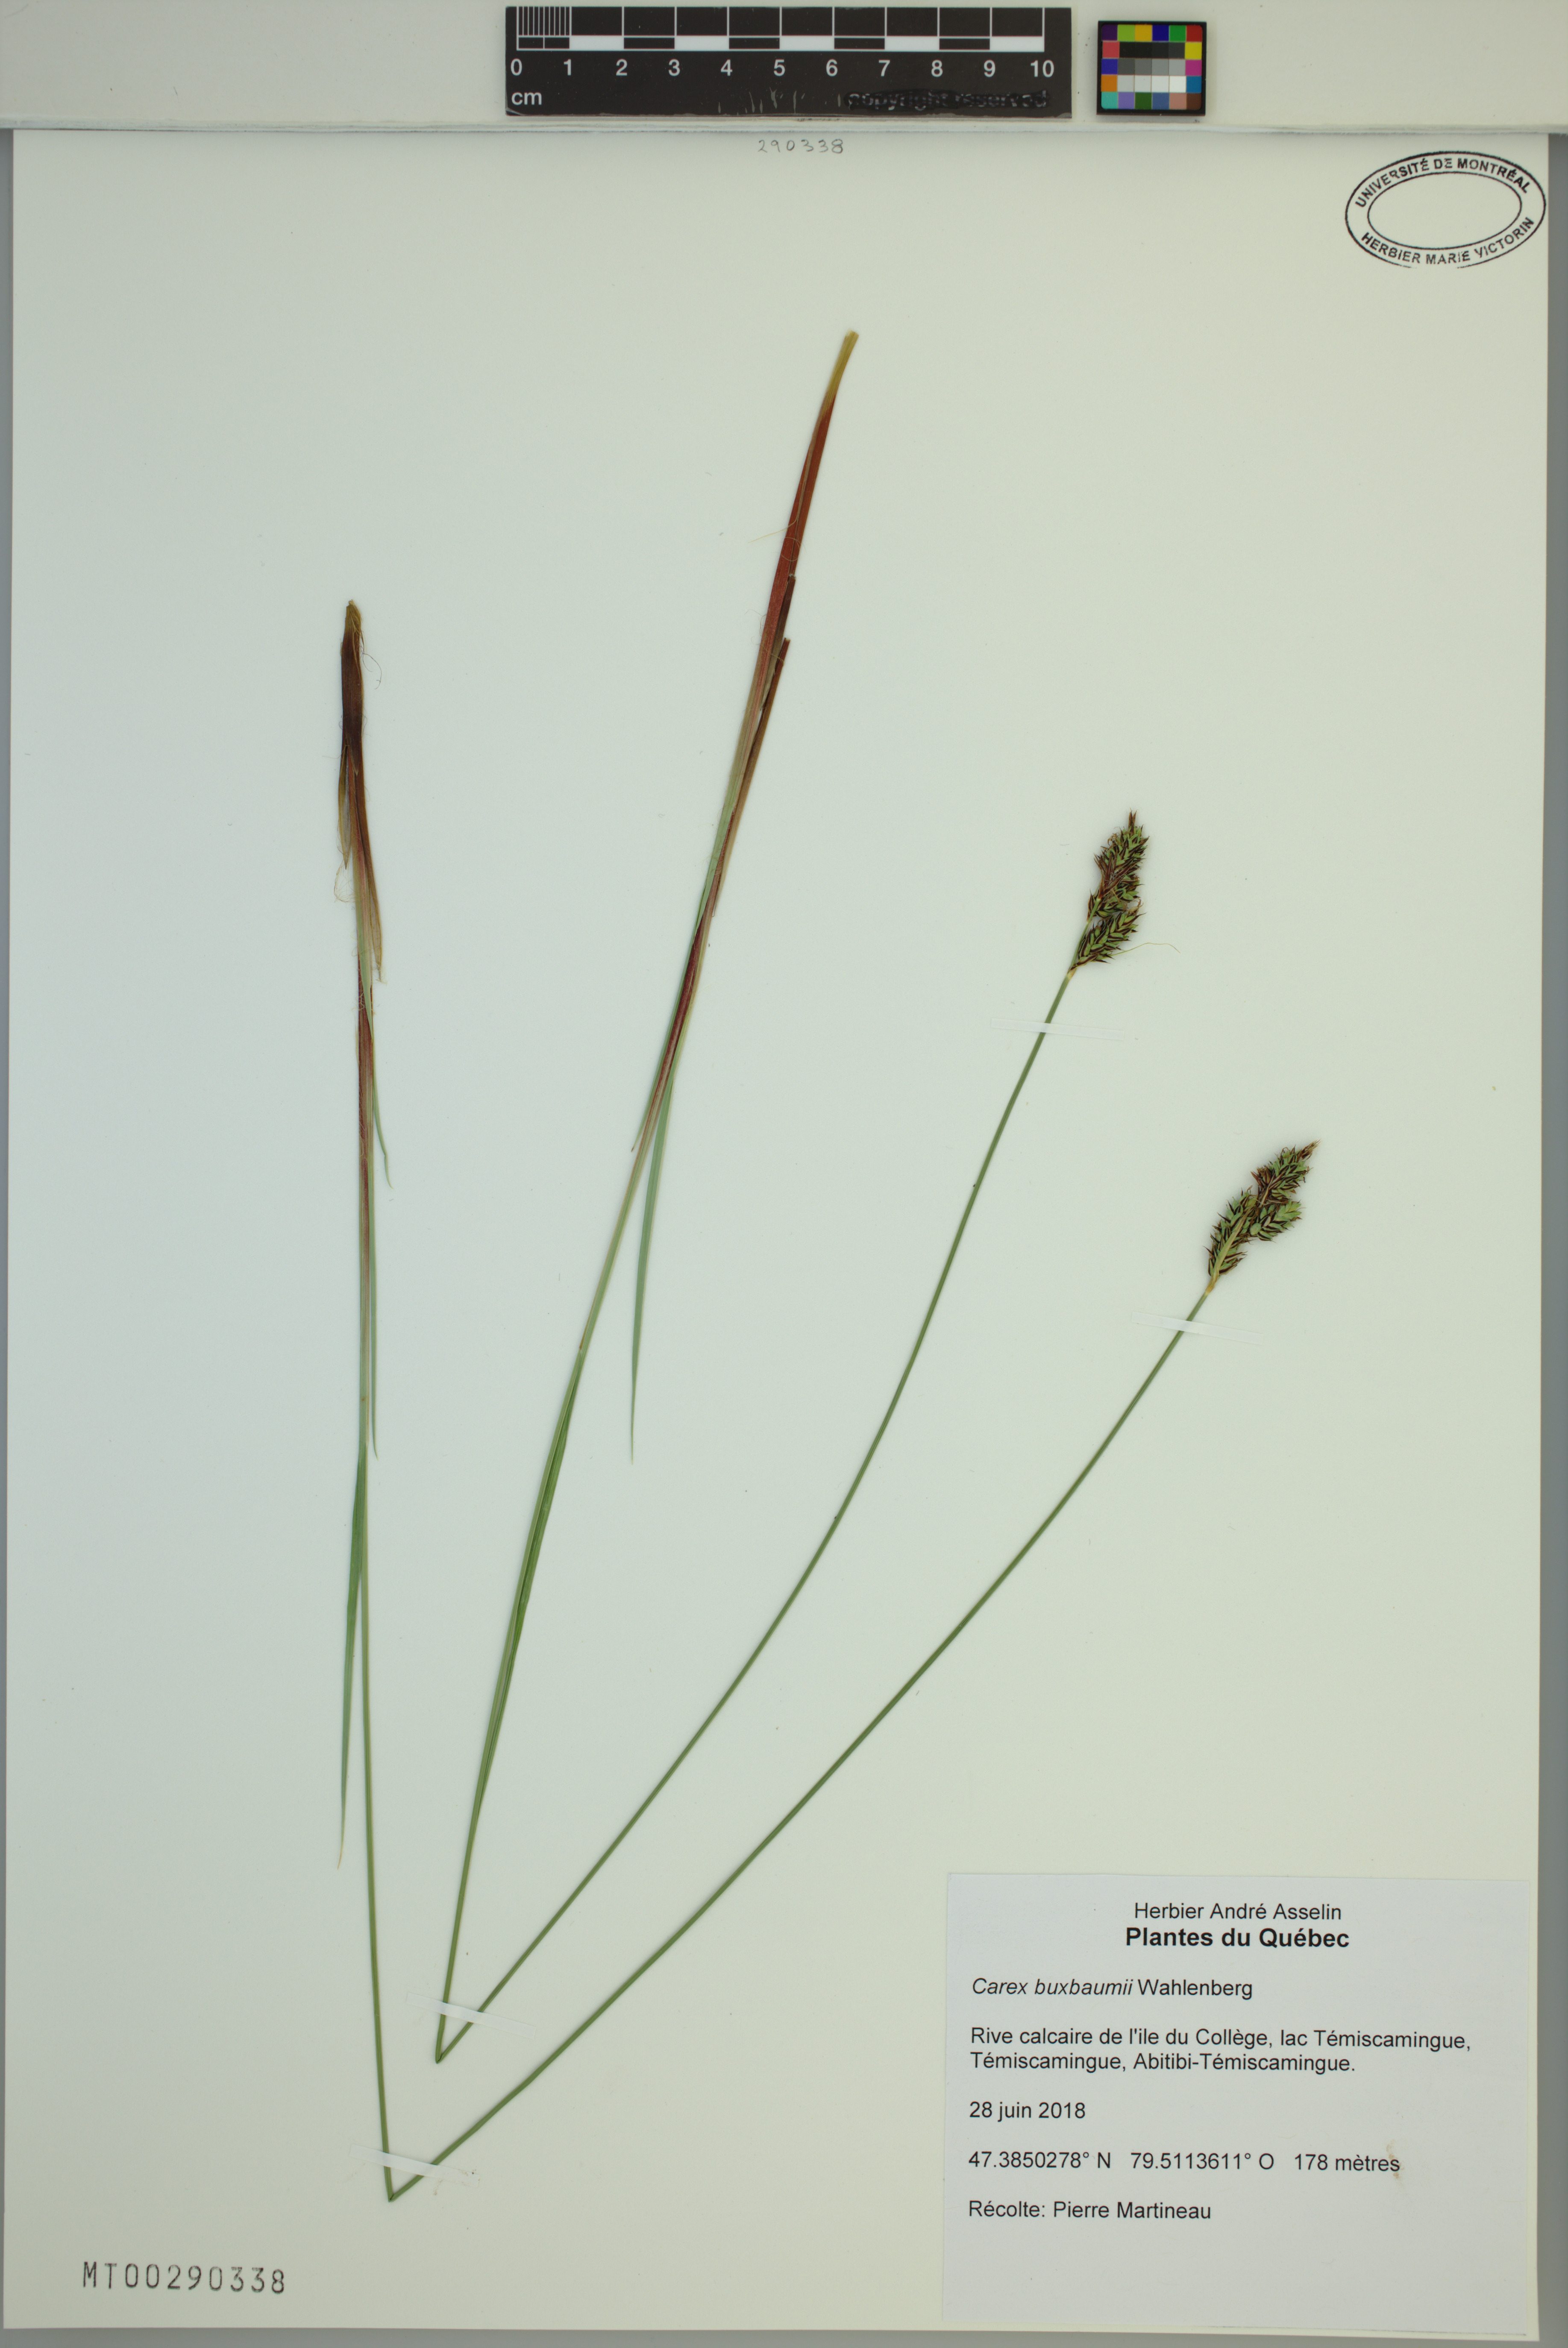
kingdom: Plantae
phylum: Tracheophyta
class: Liliopsida
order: Poales
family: Cyperaceae
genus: Carex
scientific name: Carex buxbaumii
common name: Club sedge
